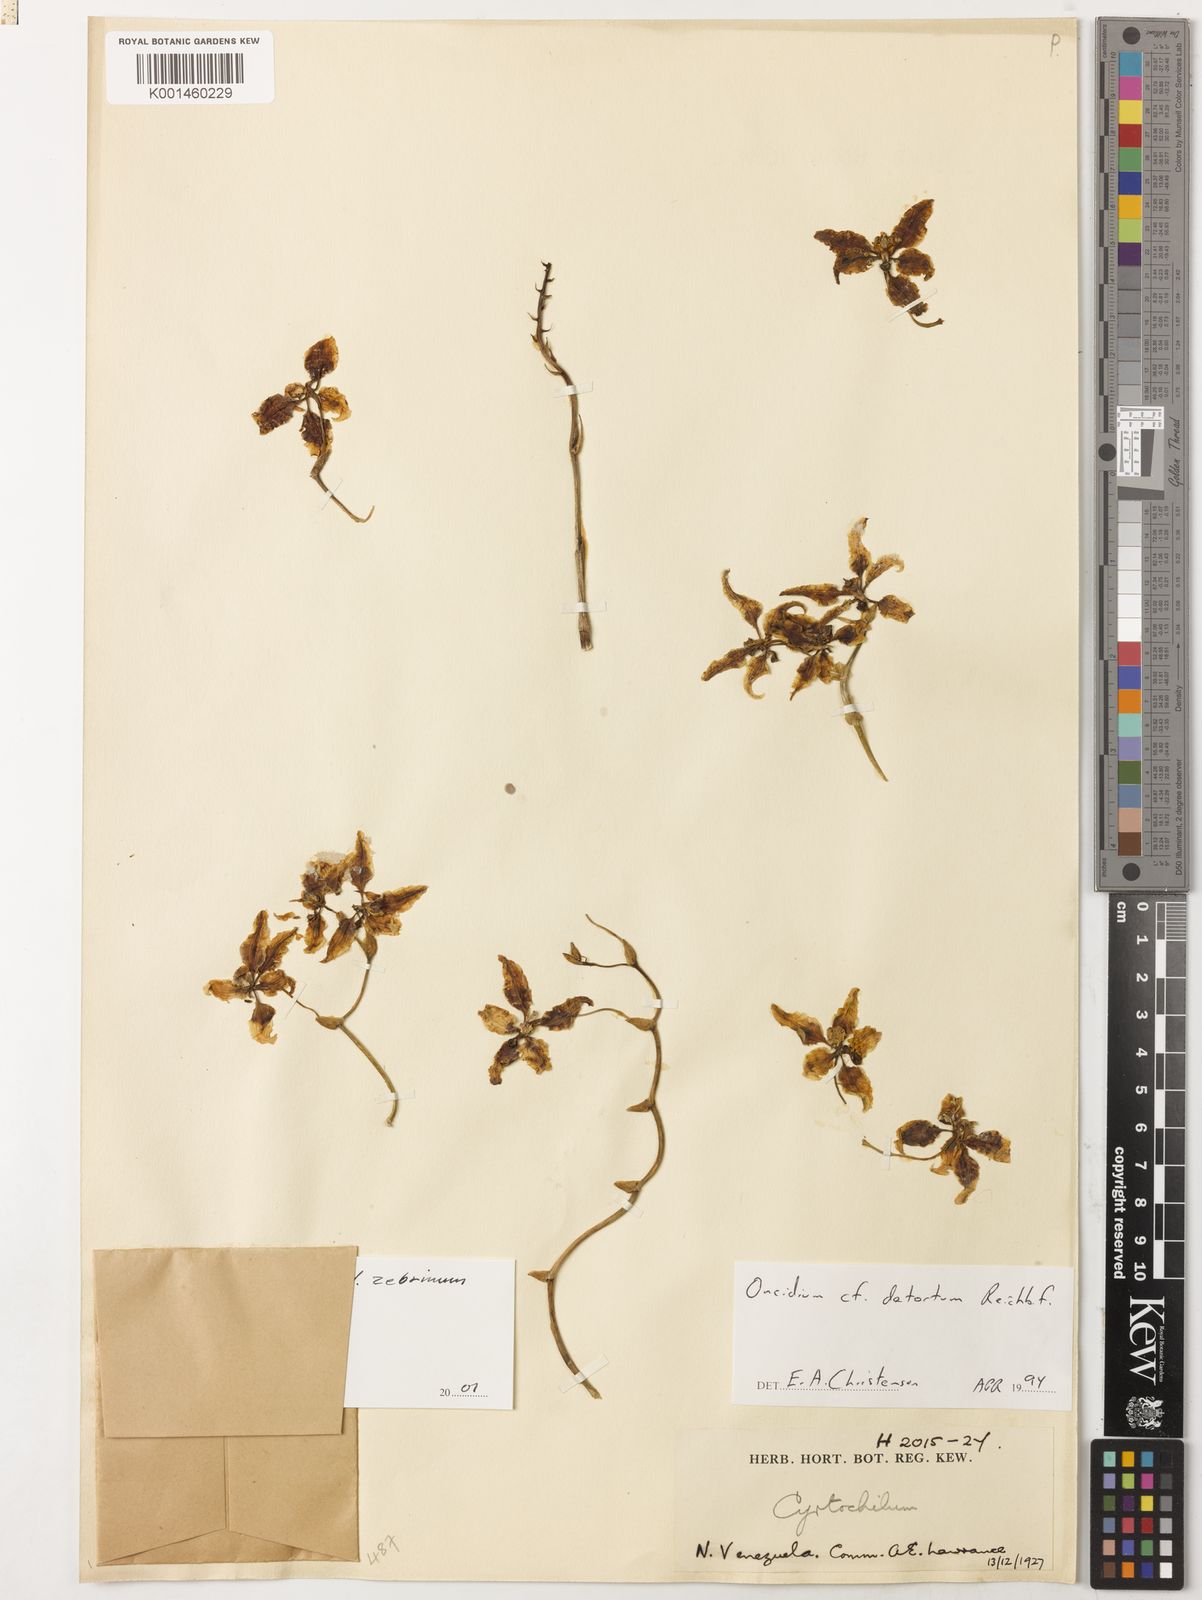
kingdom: Plantae
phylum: Tracheophyta
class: Liliopsida
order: Asparagales
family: Orchidaceae
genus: Cyrtochilum
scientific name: Cyrtochilum detortum
